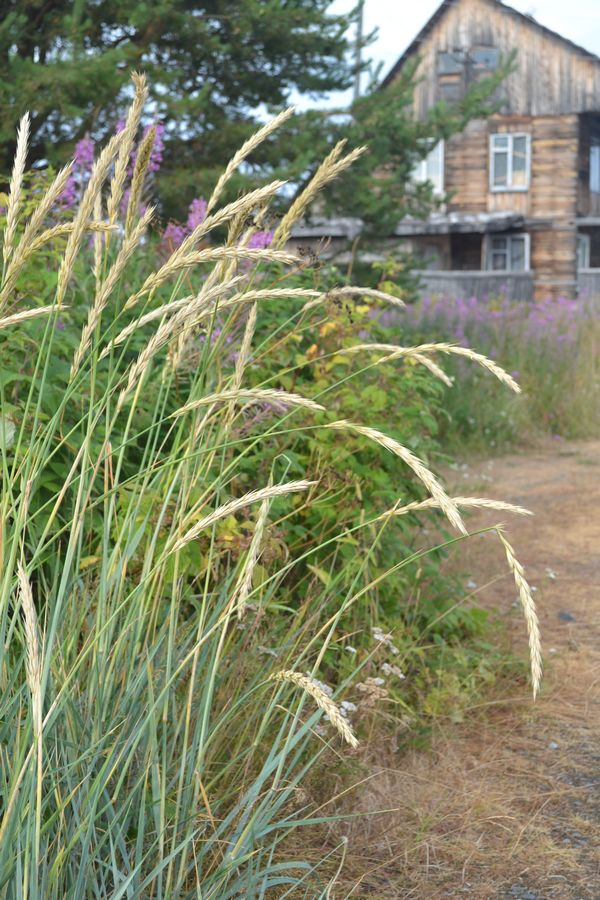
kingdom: Plantae
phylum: Tracheophyta
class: Liliopsida
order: Poales
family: Poaceae
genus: Leymus
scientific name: Leymus arenarius
